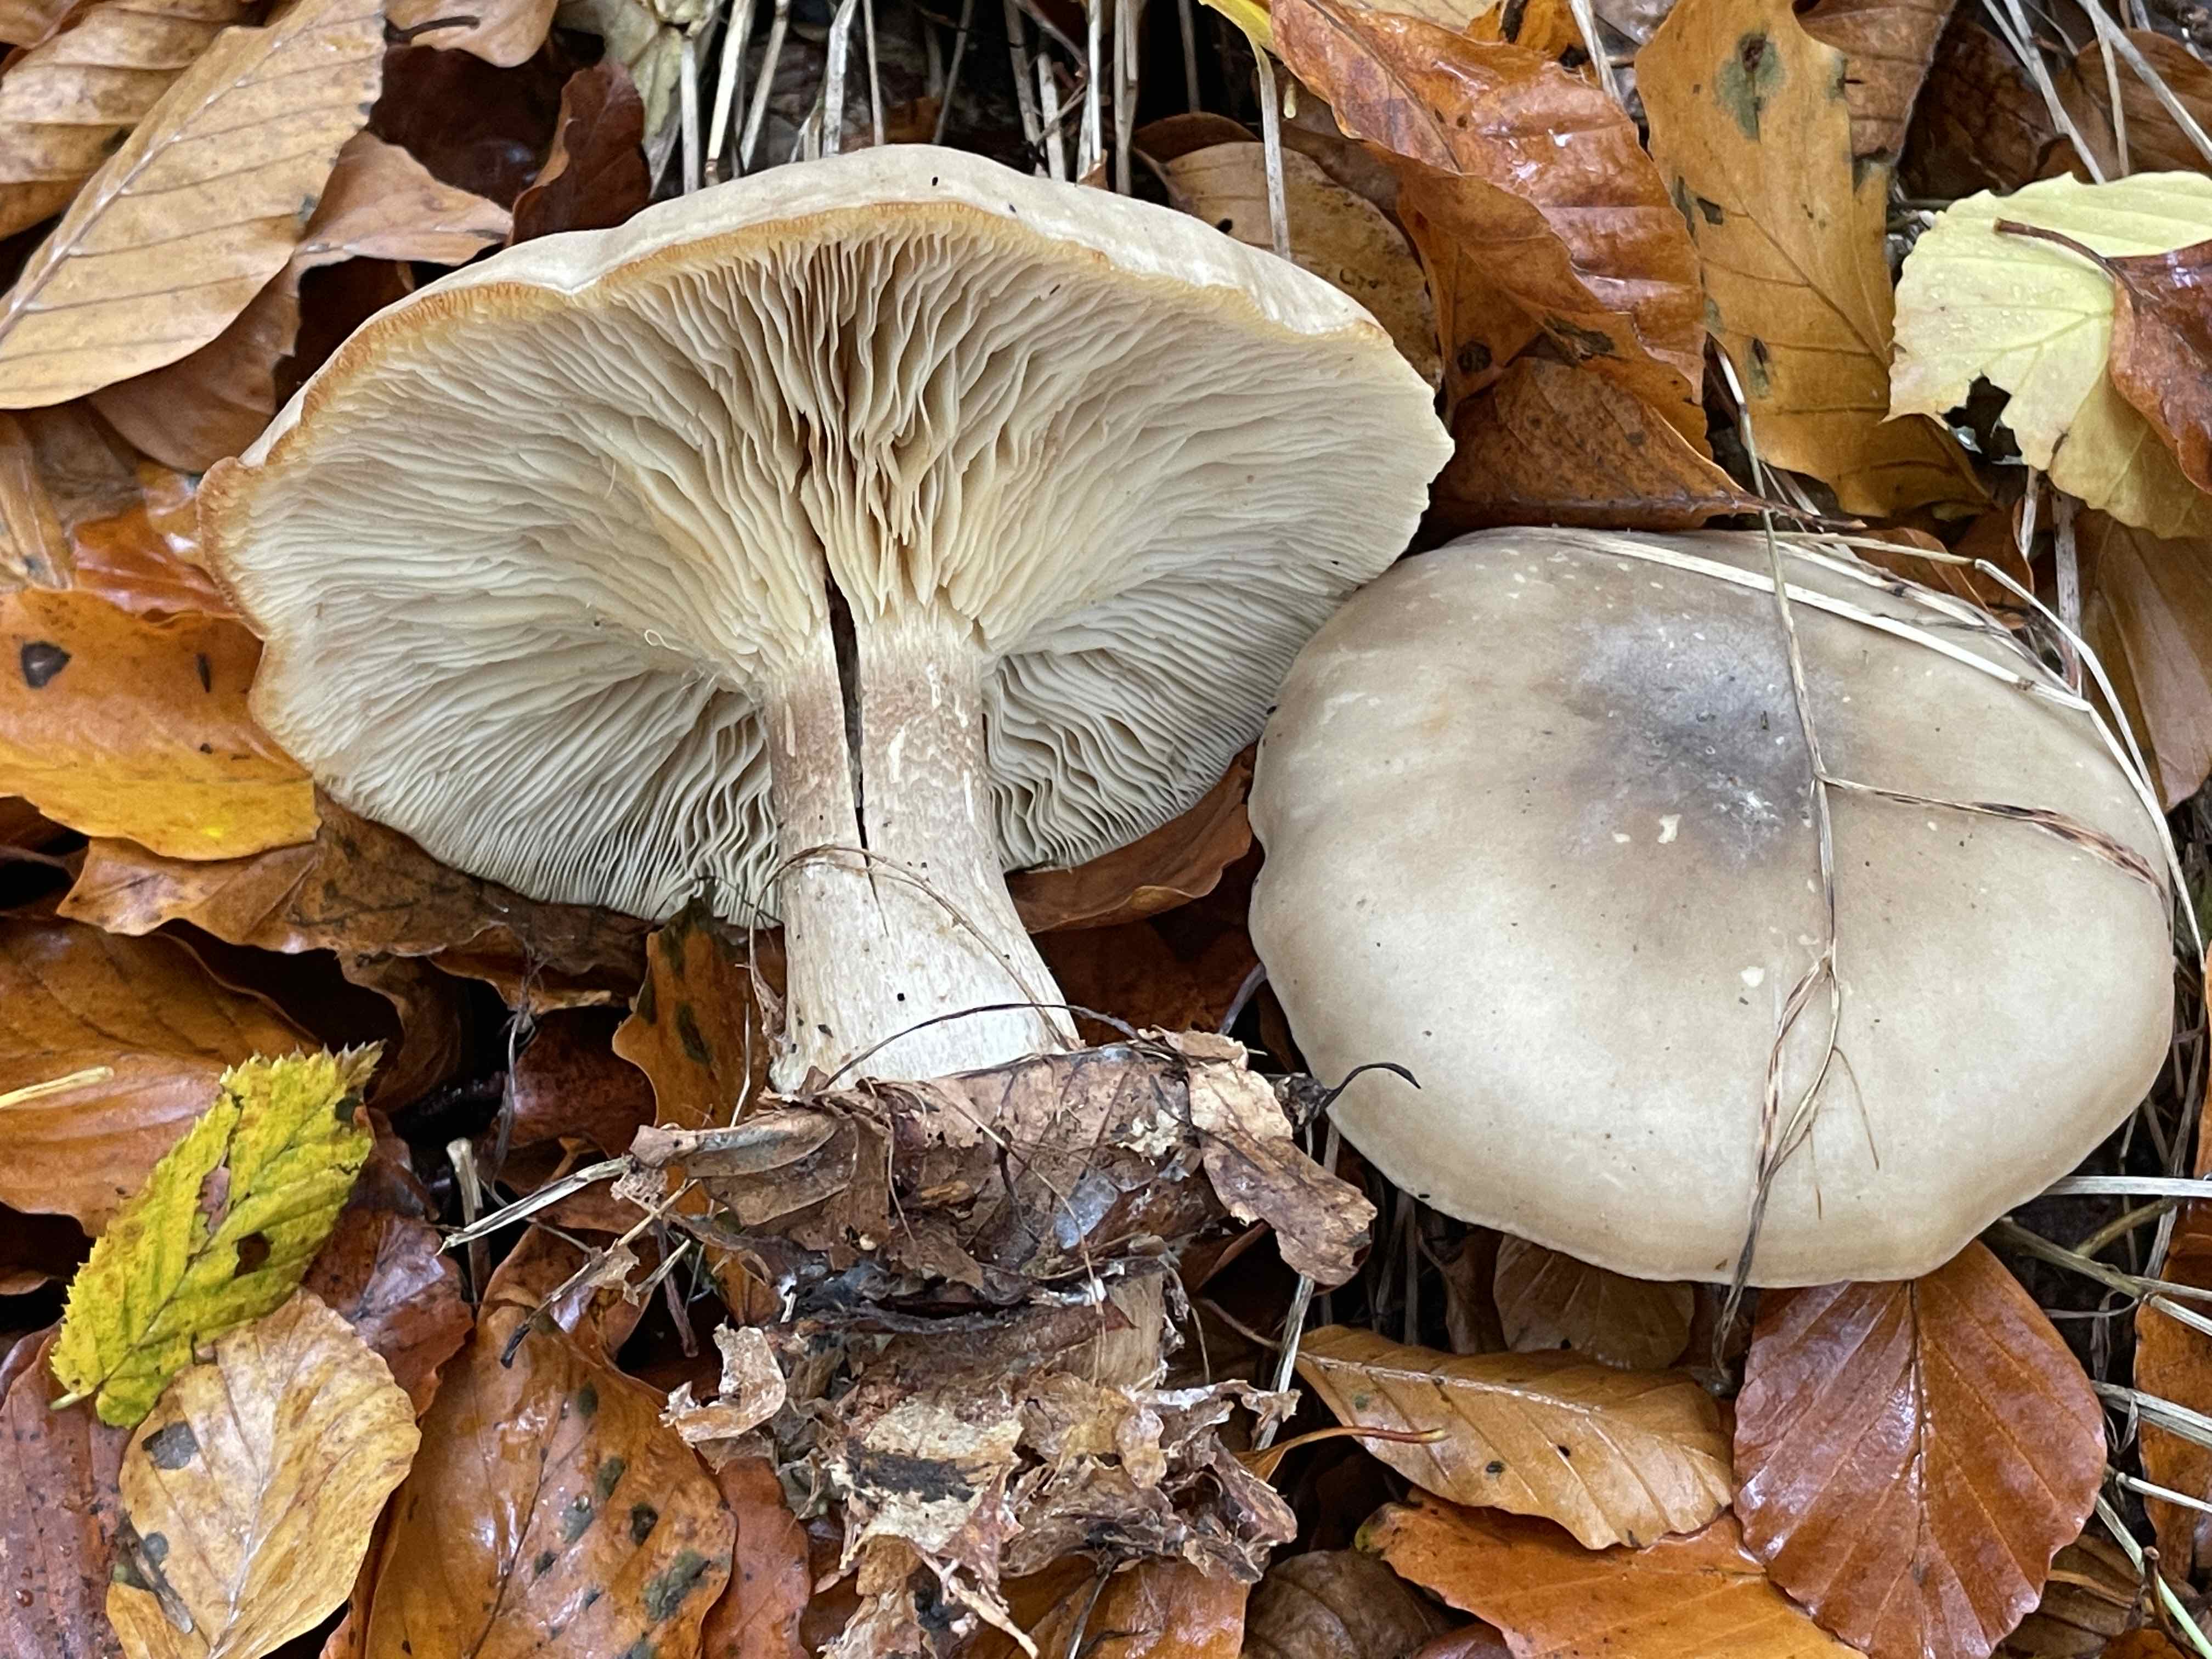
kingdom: Fungi
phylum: Basidiomycota
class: Agaricomycetes
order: Agaricales
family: Tricholomataceae
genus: Clitocybe
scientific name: Clitocybe nebularis
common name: tåge-tragthat
